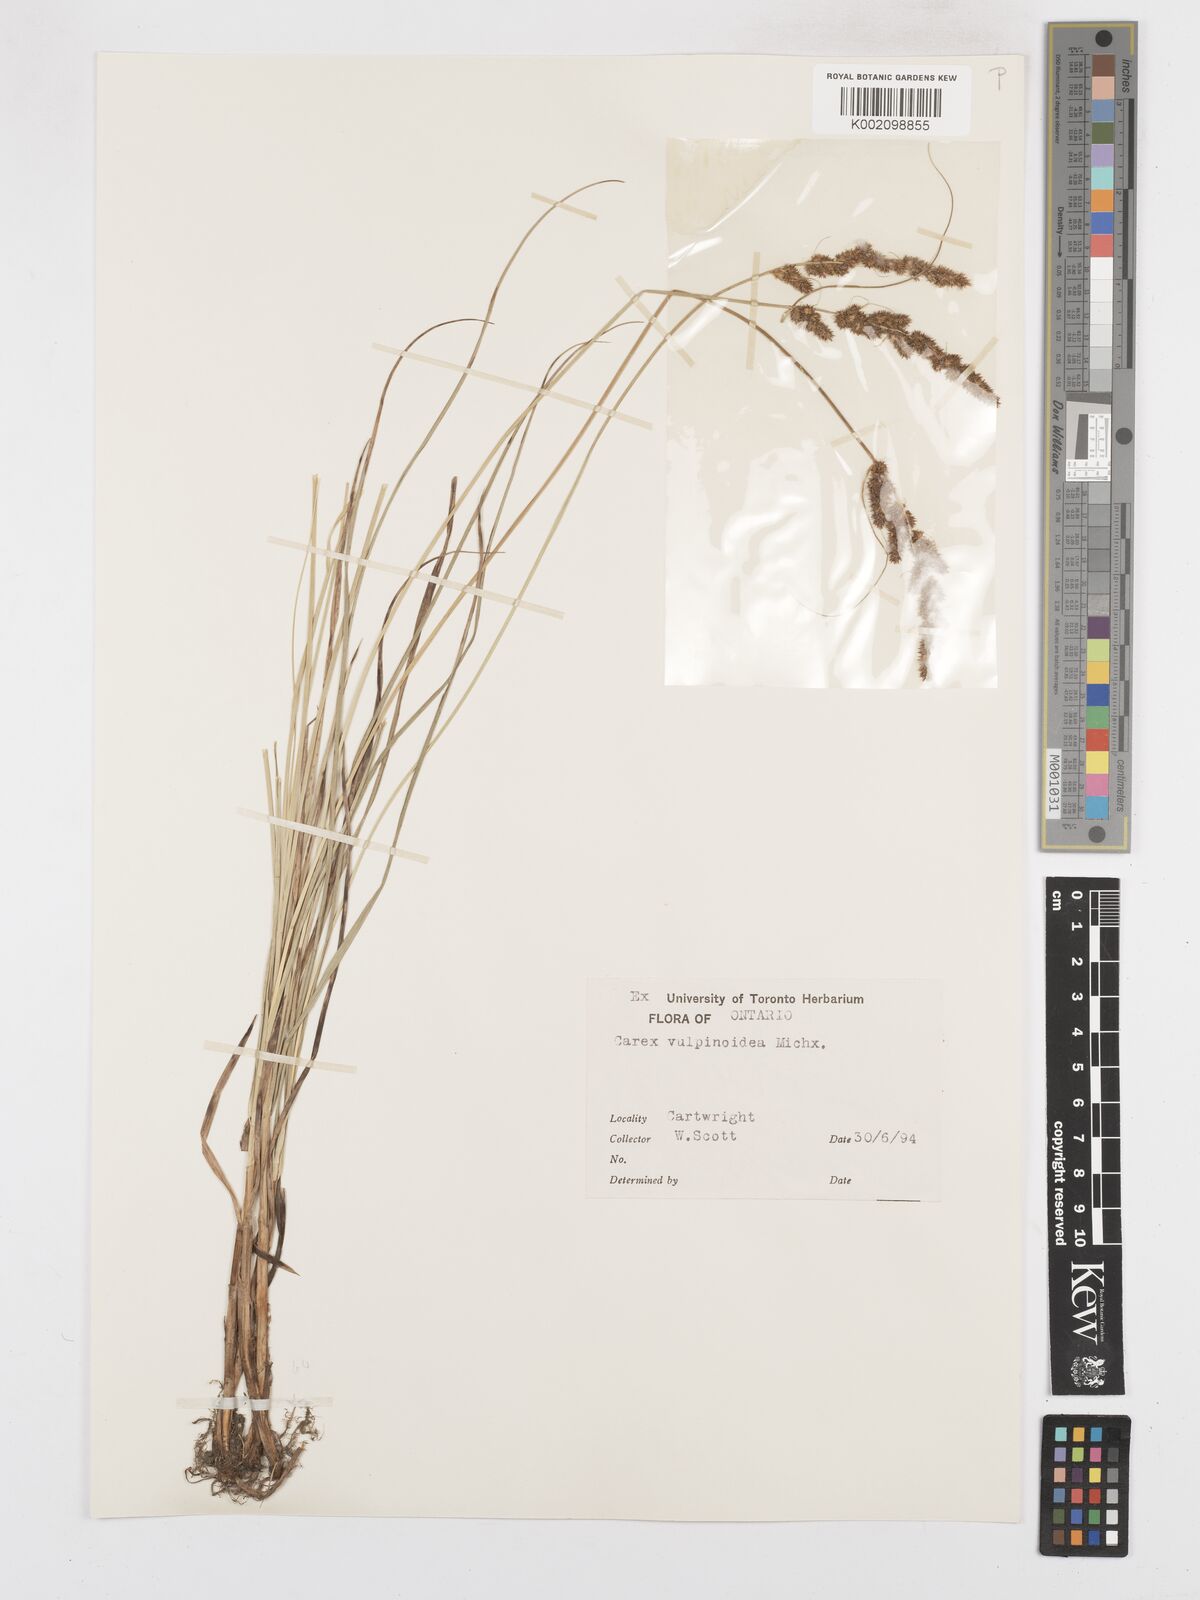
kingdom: Plantae
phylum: Tracheophyta
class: Liliopsida
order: Poales
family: Cyperaceae
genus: Carex
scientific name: Carex vulpinoidea
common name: American fox-sedge
